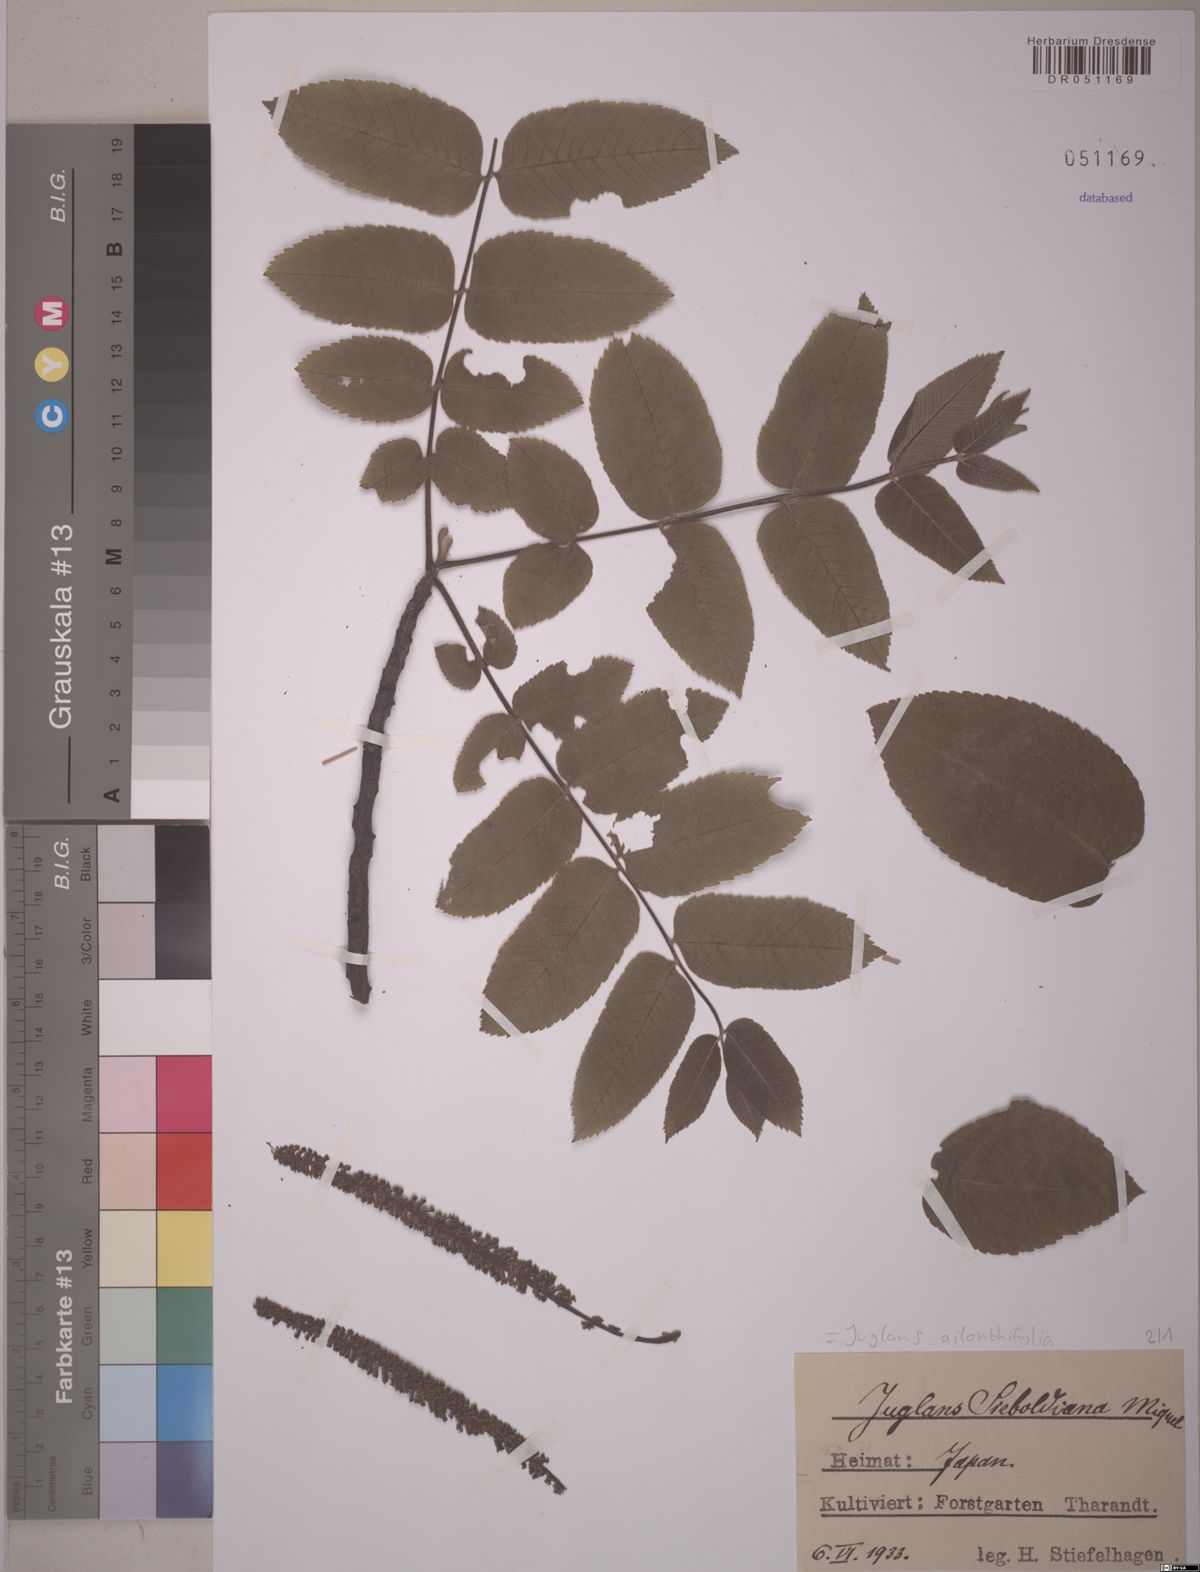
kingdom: Plantae
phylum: Tracheophyta
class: Magnoliopsida
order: Fagales
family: Juglandaceae
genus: Juglans
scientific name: Juglans ailantifolia
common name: Japanese walnut
